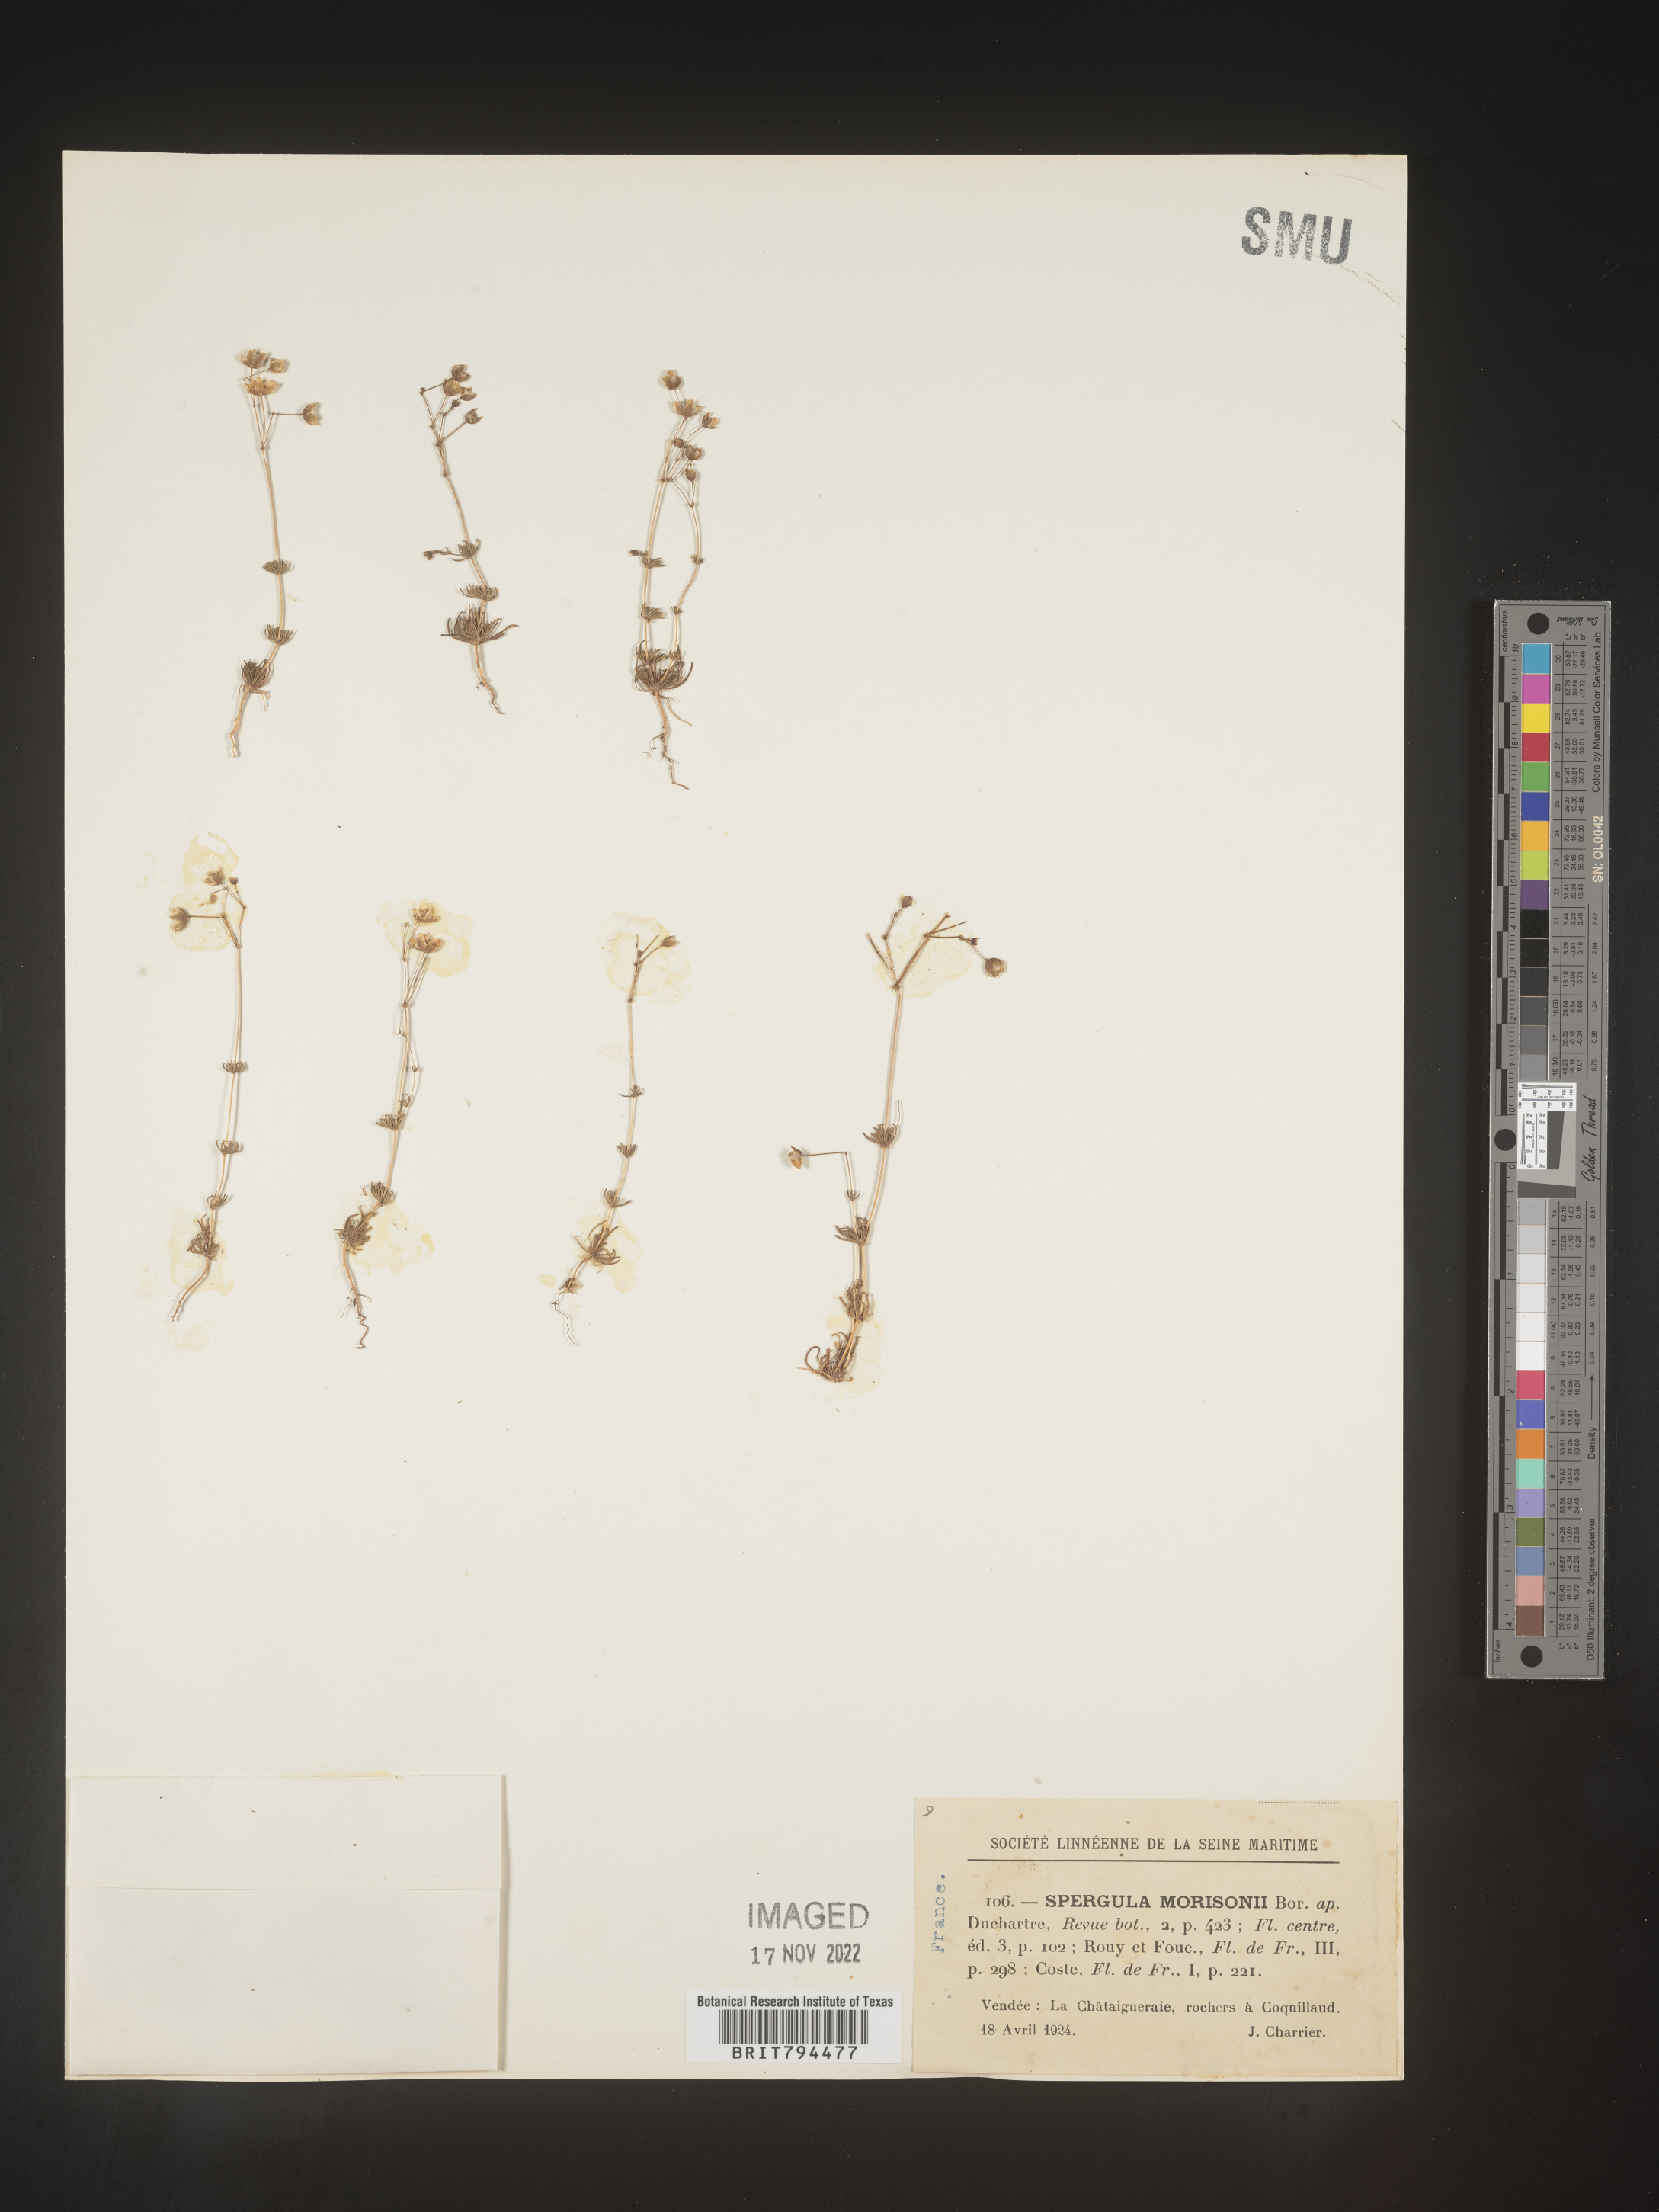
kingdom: Plantae
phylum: Tracheophyta
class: Magnoliopsida
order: Caryophyllales
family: Caryophyllaceae
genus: Spergula
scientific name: Spergula morisonii
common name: Pearlwort spurrey
